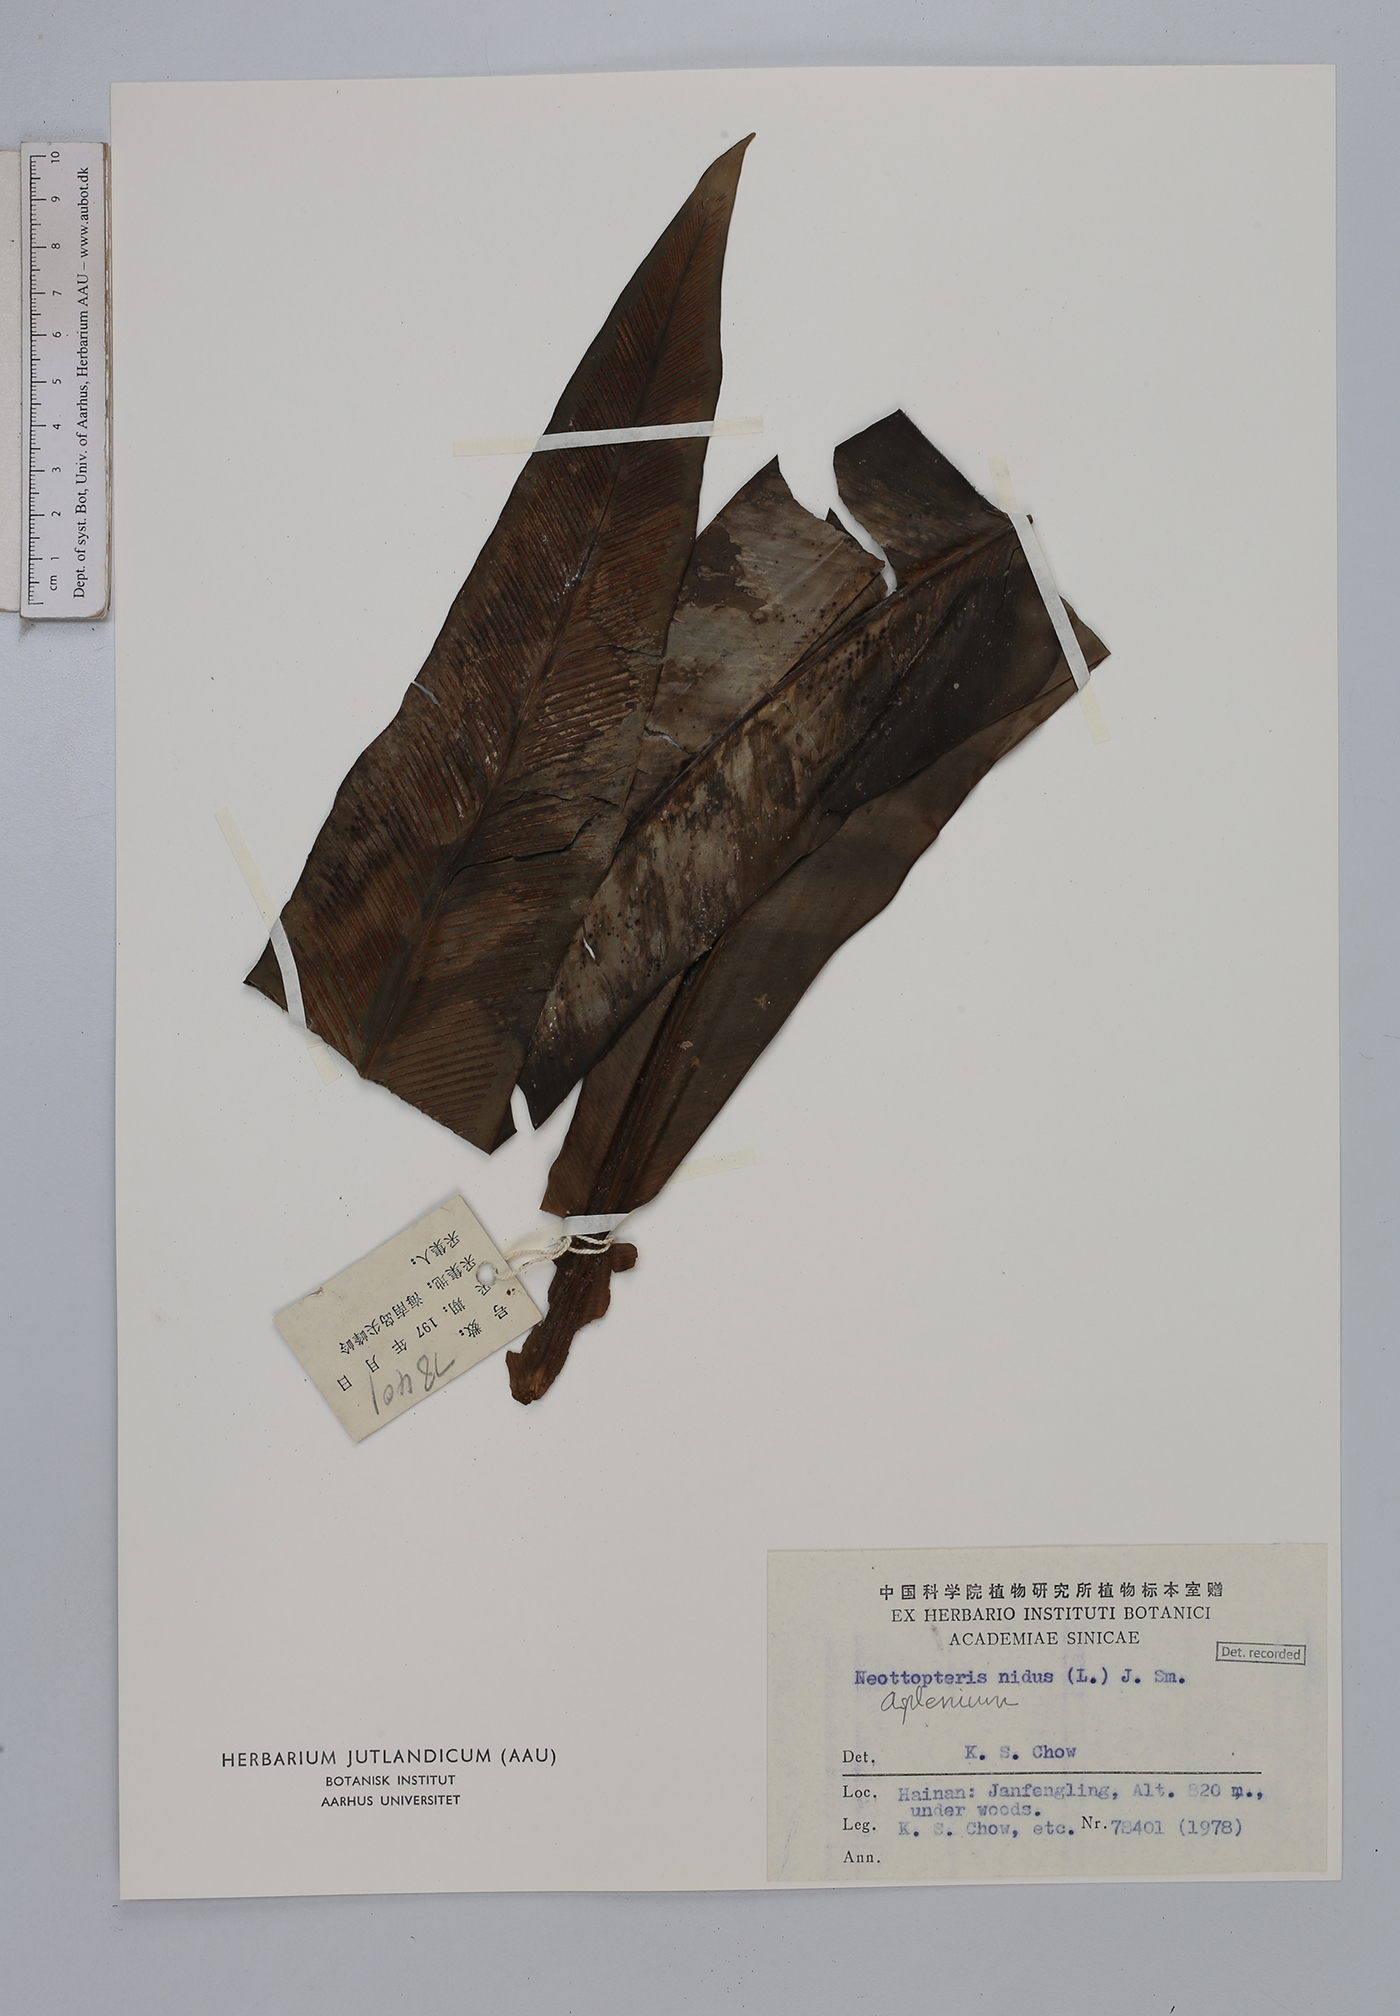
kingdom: Plantae
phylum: Tracheophyta
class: Polypodiopsida
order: Polypodiales
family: Aspleniaceae
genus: Asplenium
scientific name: Asplenium nidus
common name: Bird's-nest fern
